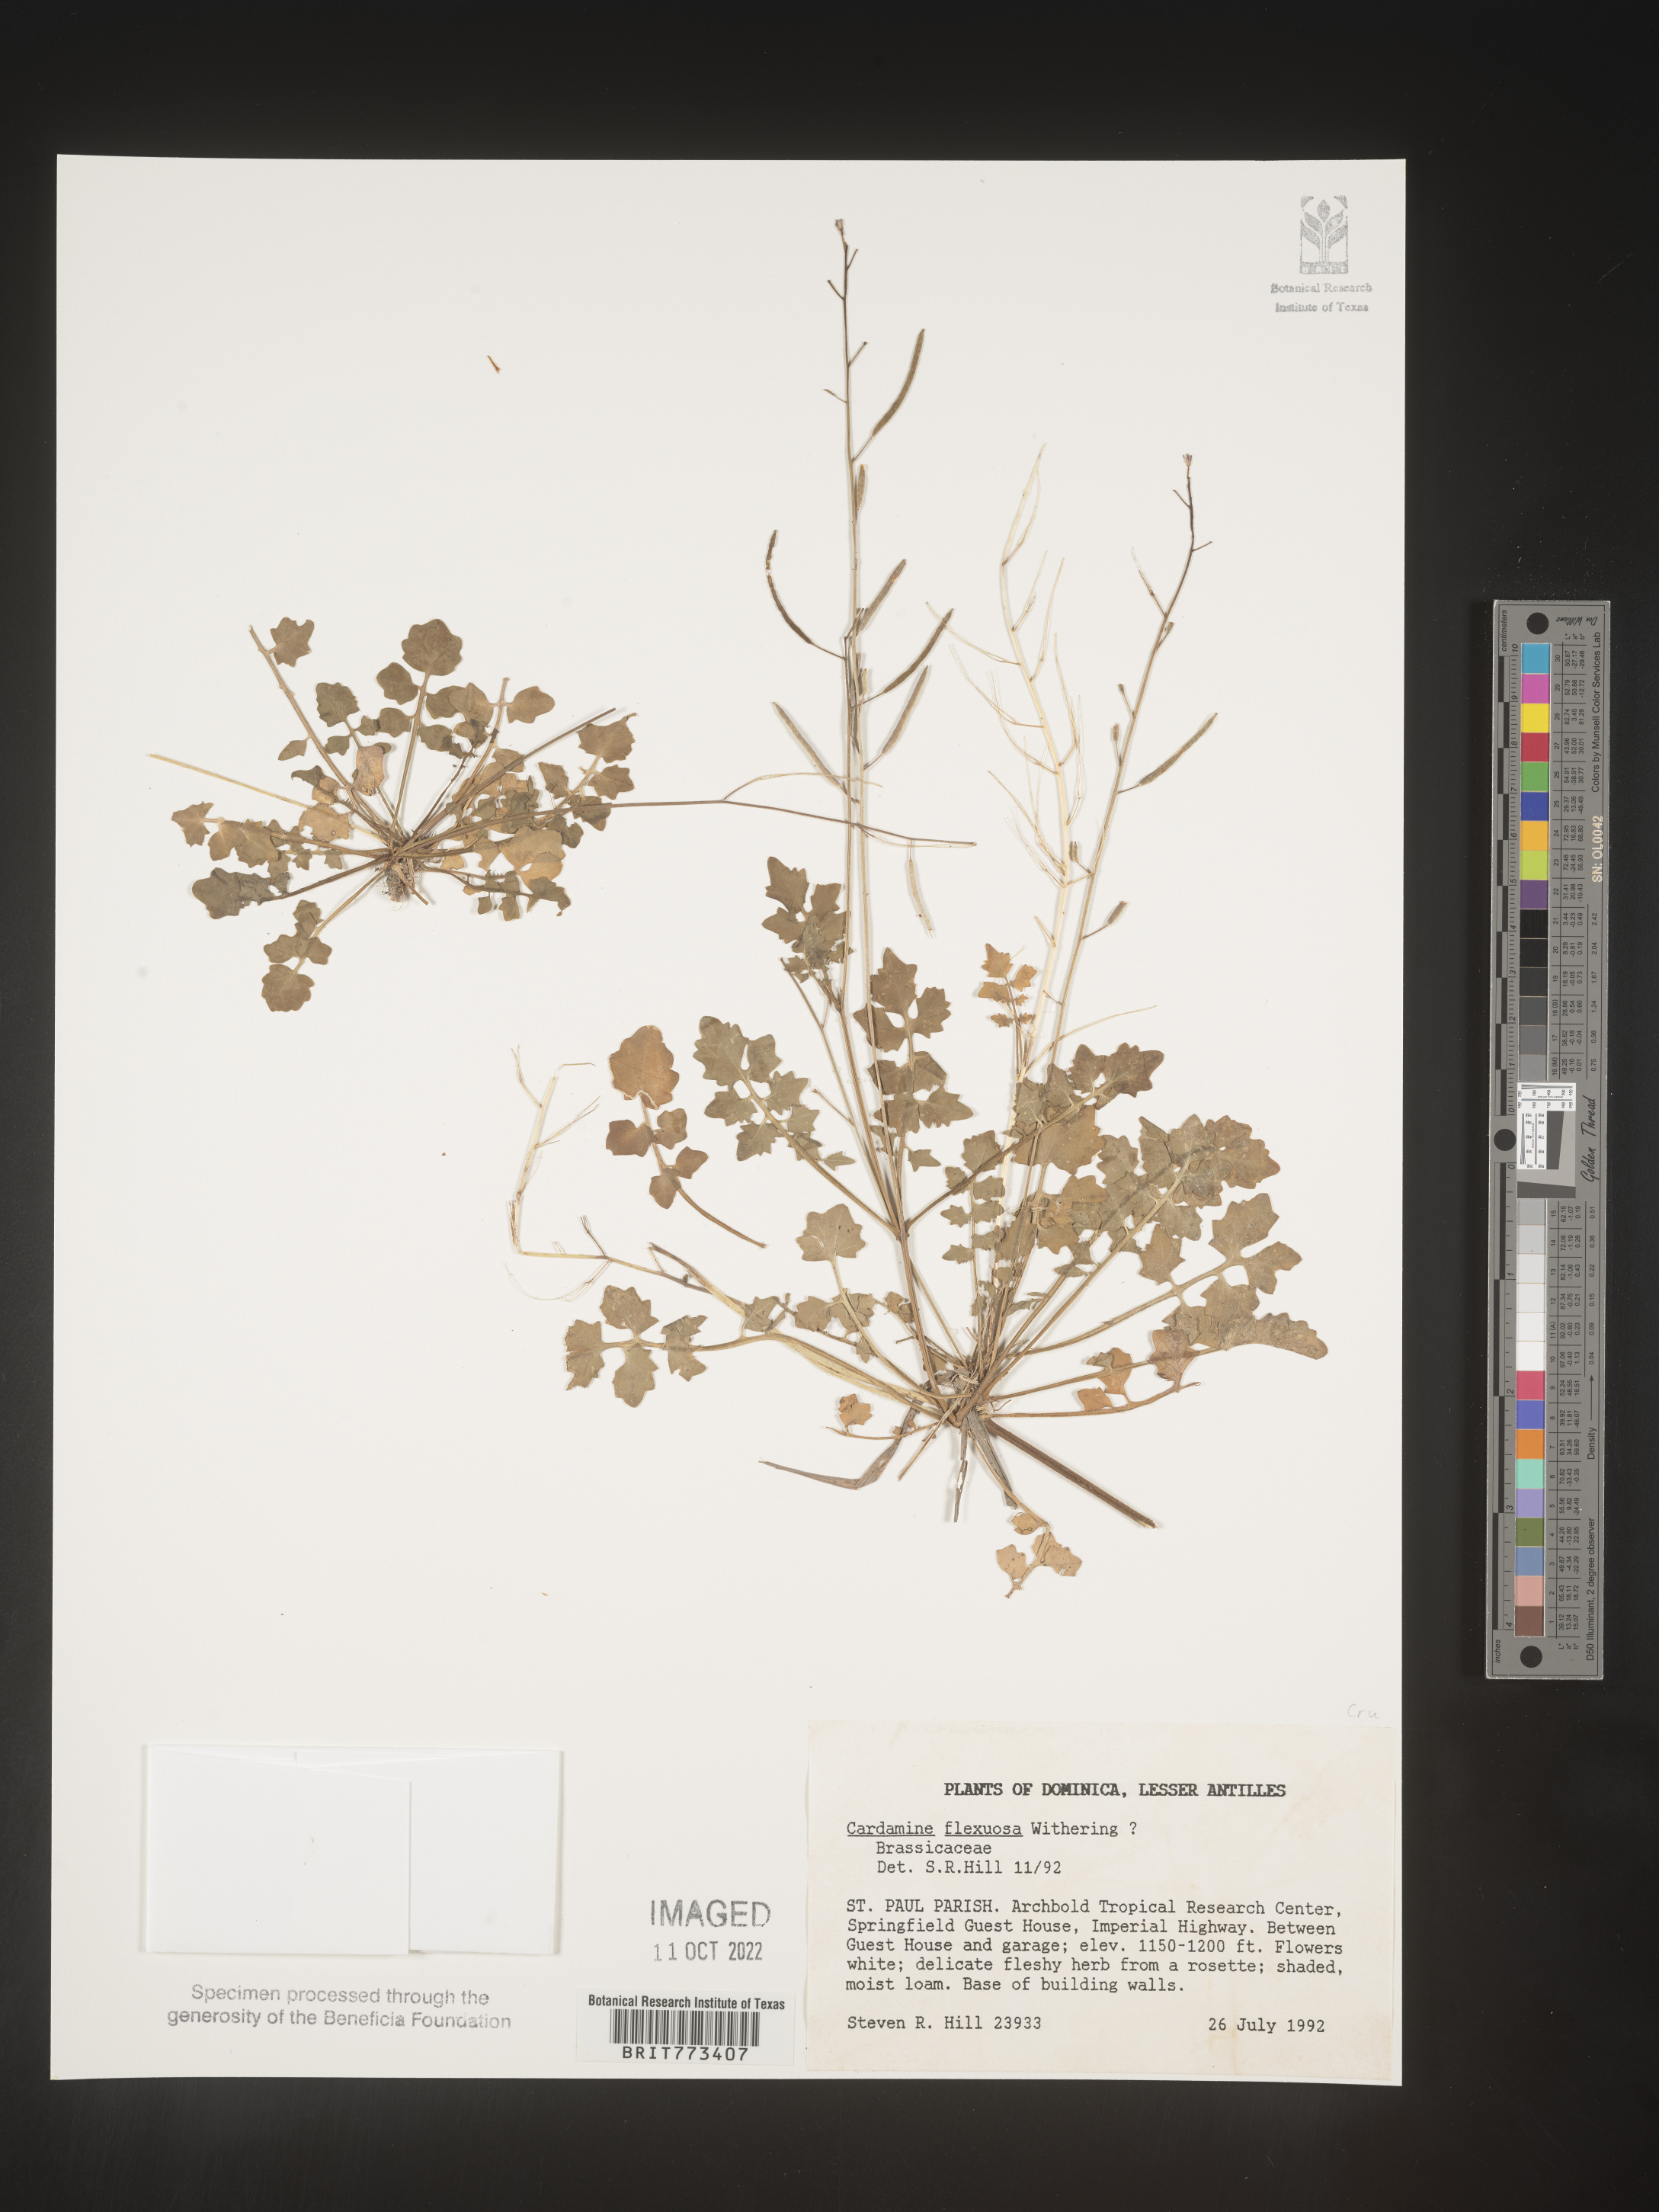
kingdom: Plantae
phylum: Tracheophyta
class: Magnoliopsida
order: Brassicales
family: Brassicaceae
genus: Cardamine
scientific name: Cardamine flexuosa
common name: Woodland bittercress
